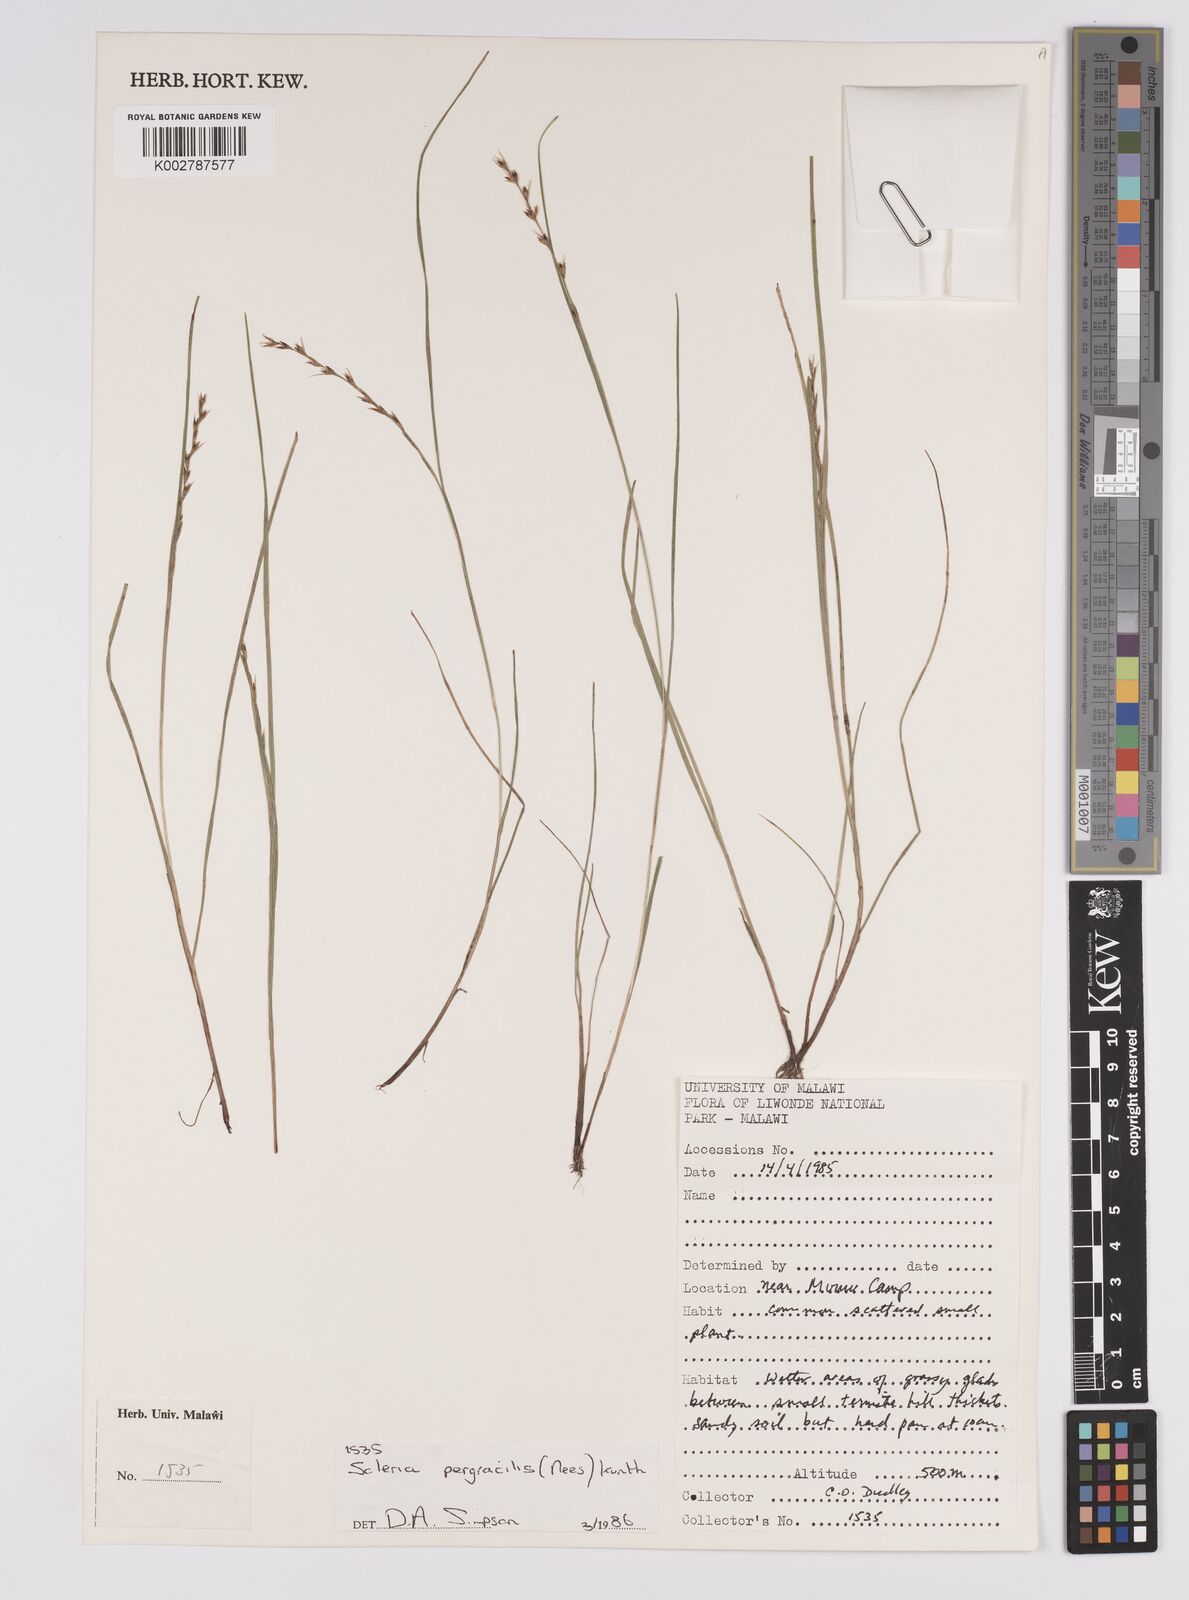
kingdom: Plantae
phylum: Tracheophyta
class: Liliopsida
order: Poales
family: Cyperaceae
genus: Scleria
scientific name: Scleria pergracilis
